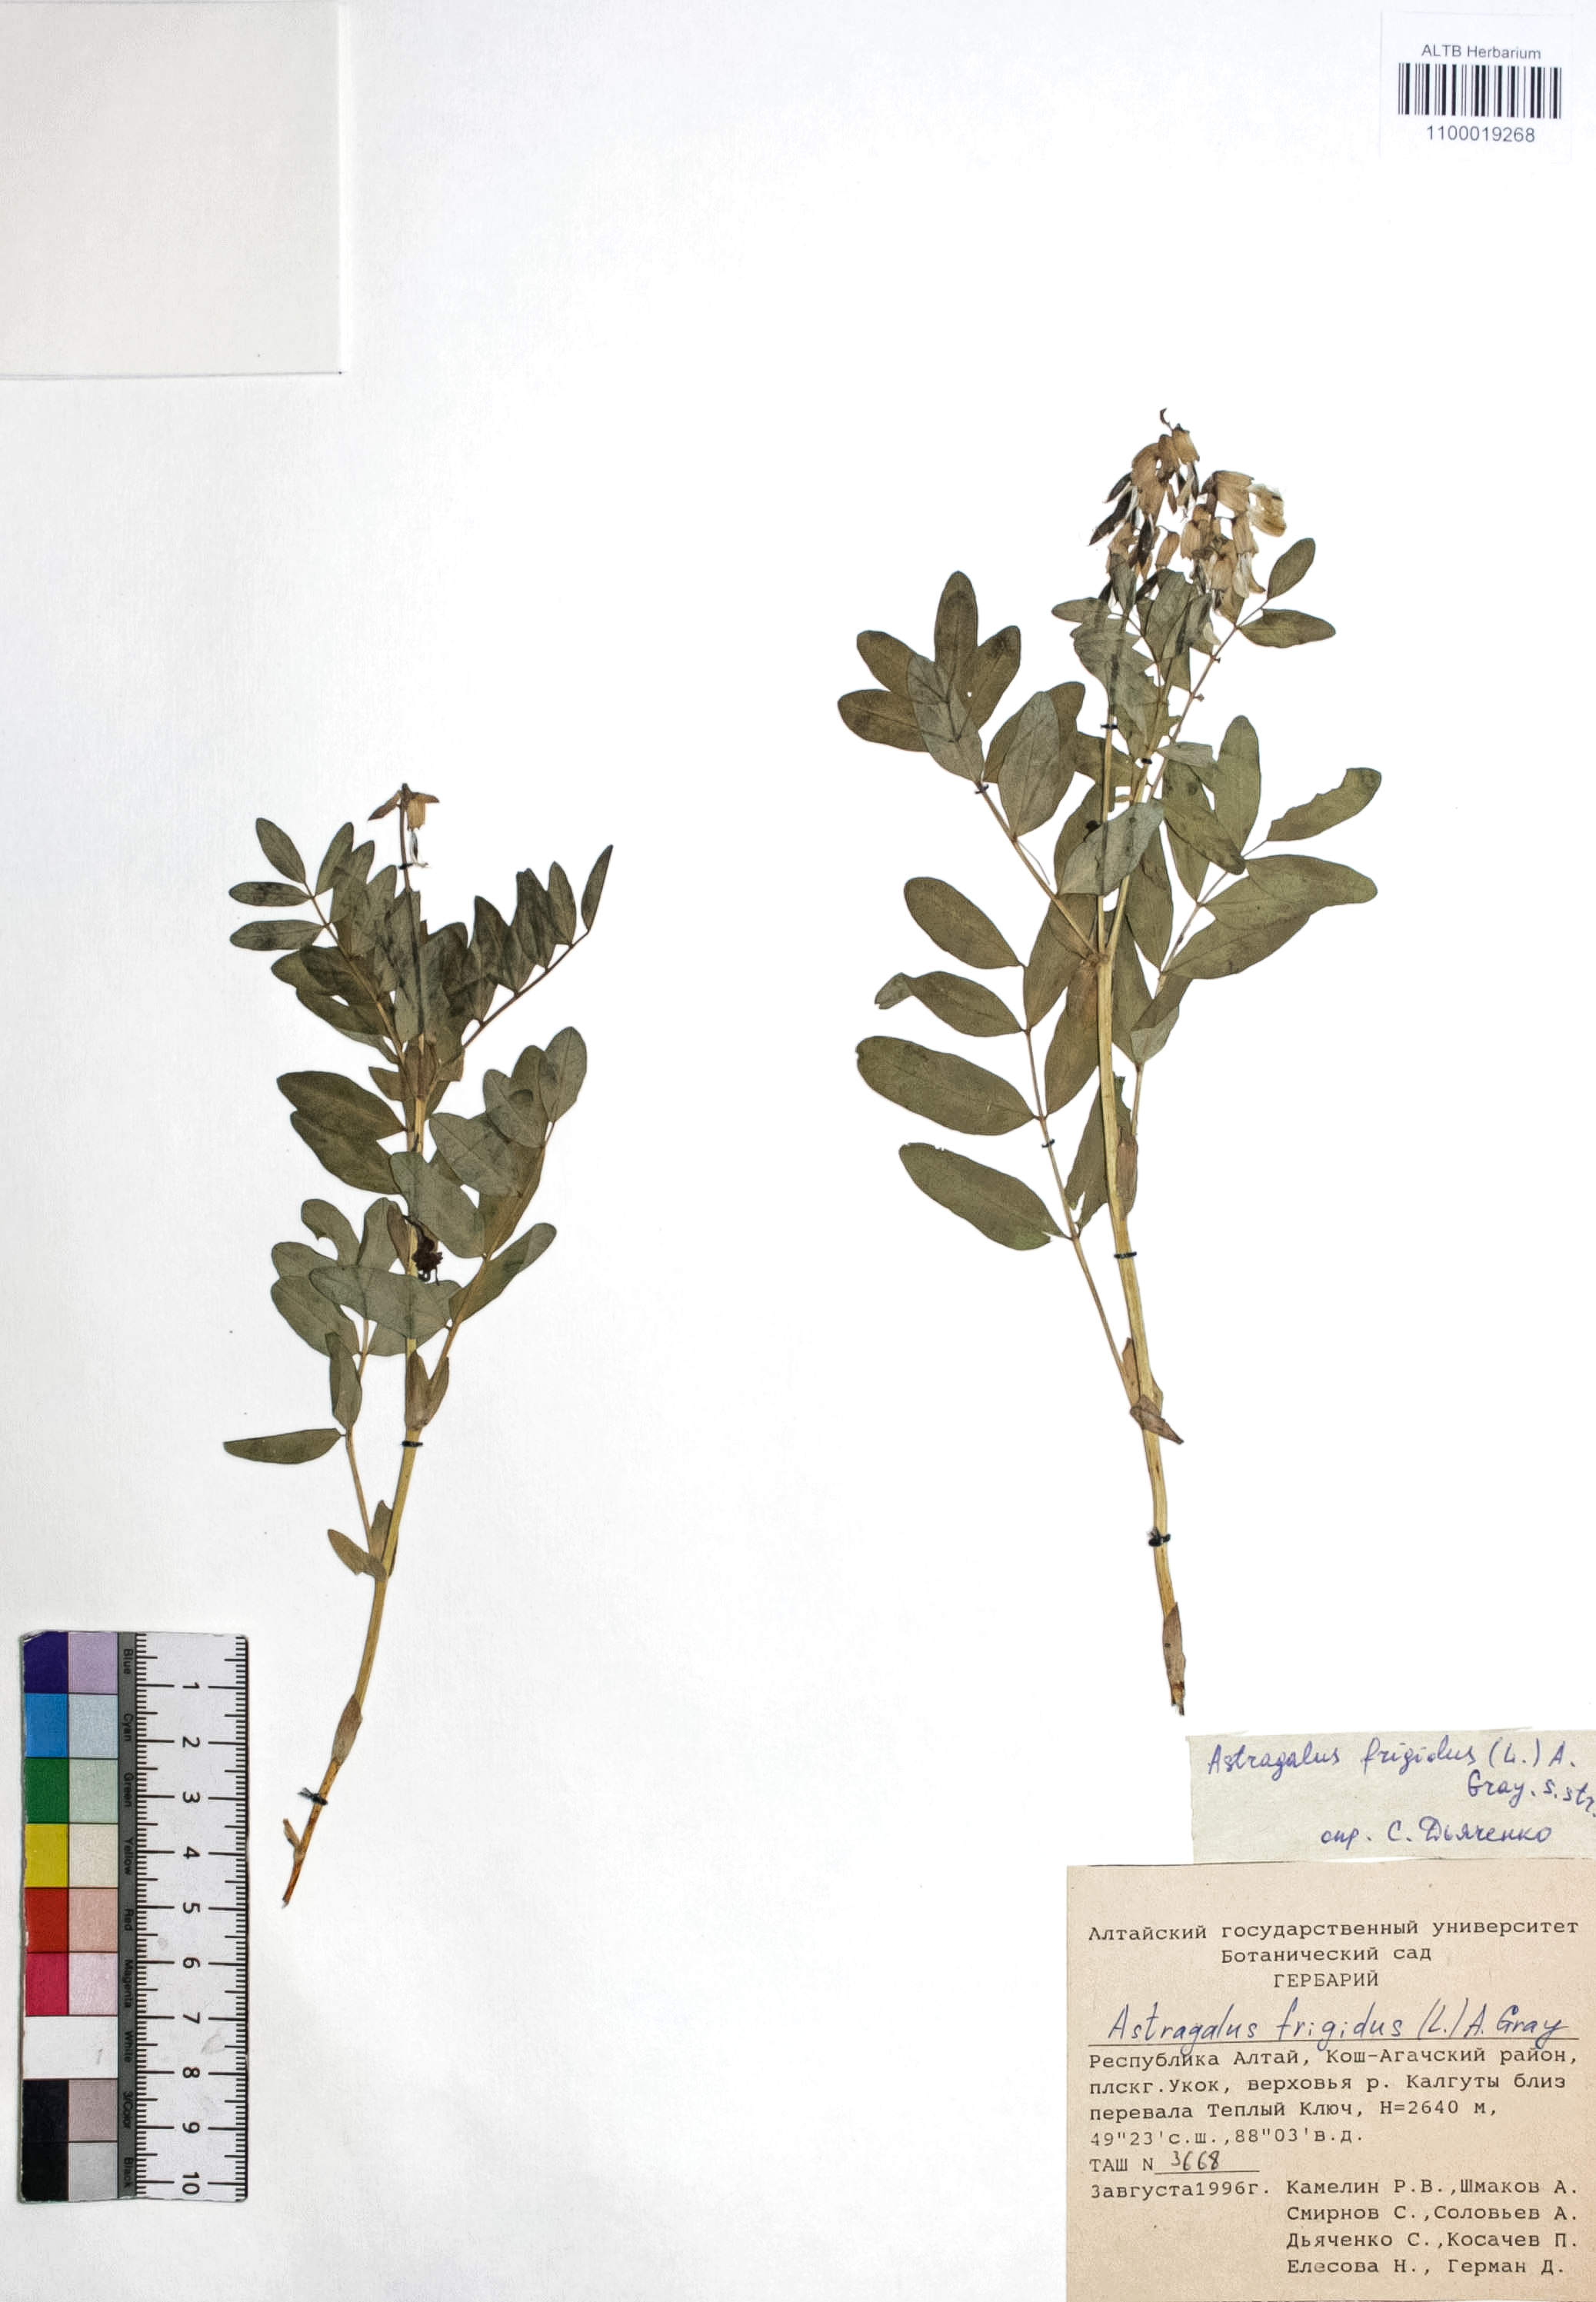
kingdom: Plantae
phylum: Tracheophyta
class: Magnoliopsida
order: Fabales
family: Fabaceae
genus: Astragalus
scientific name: Astragalus frigidus
